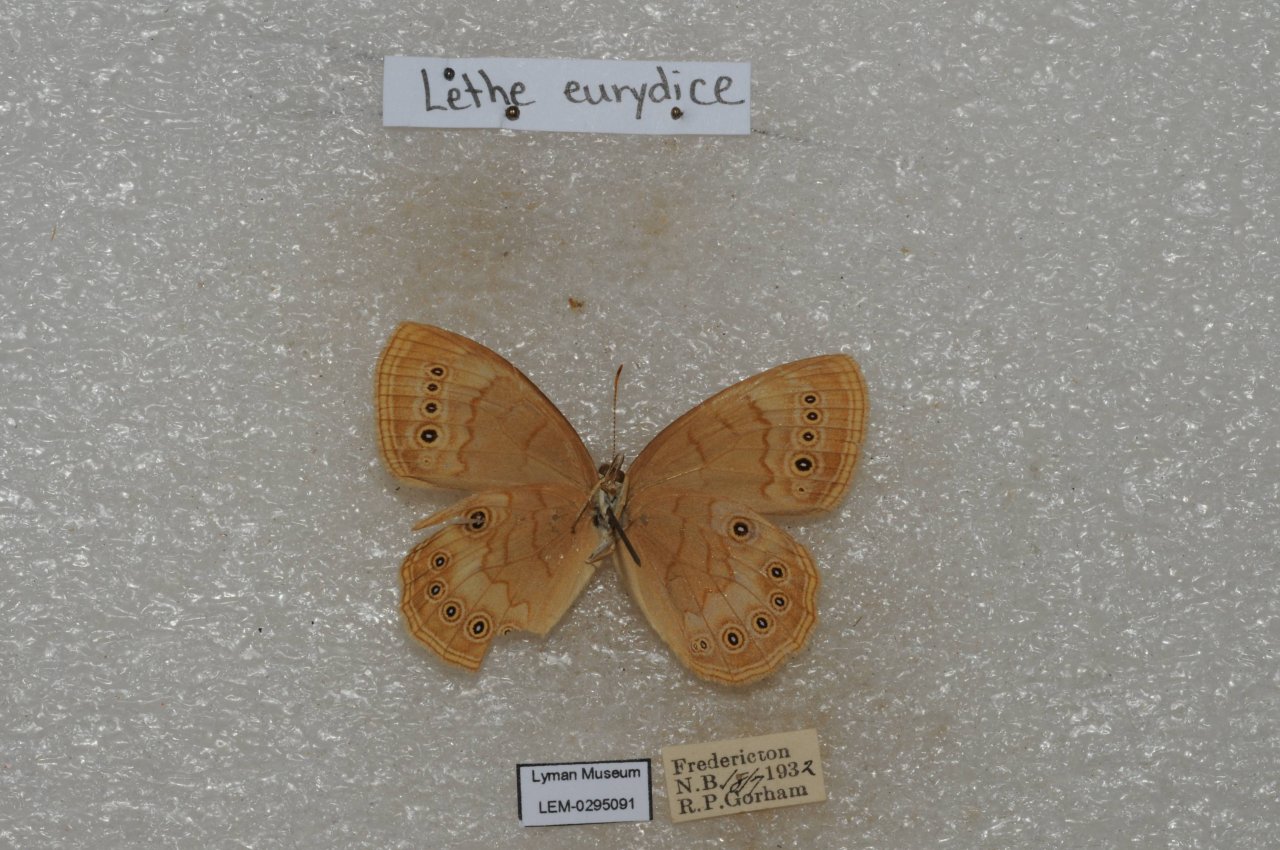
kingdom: Animalia
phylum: Arthropoda
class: Insecta
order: Lepidoptera
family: Nymphalidae
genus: Lethe
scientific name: Lethe eurydice
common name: Eyed Brown
